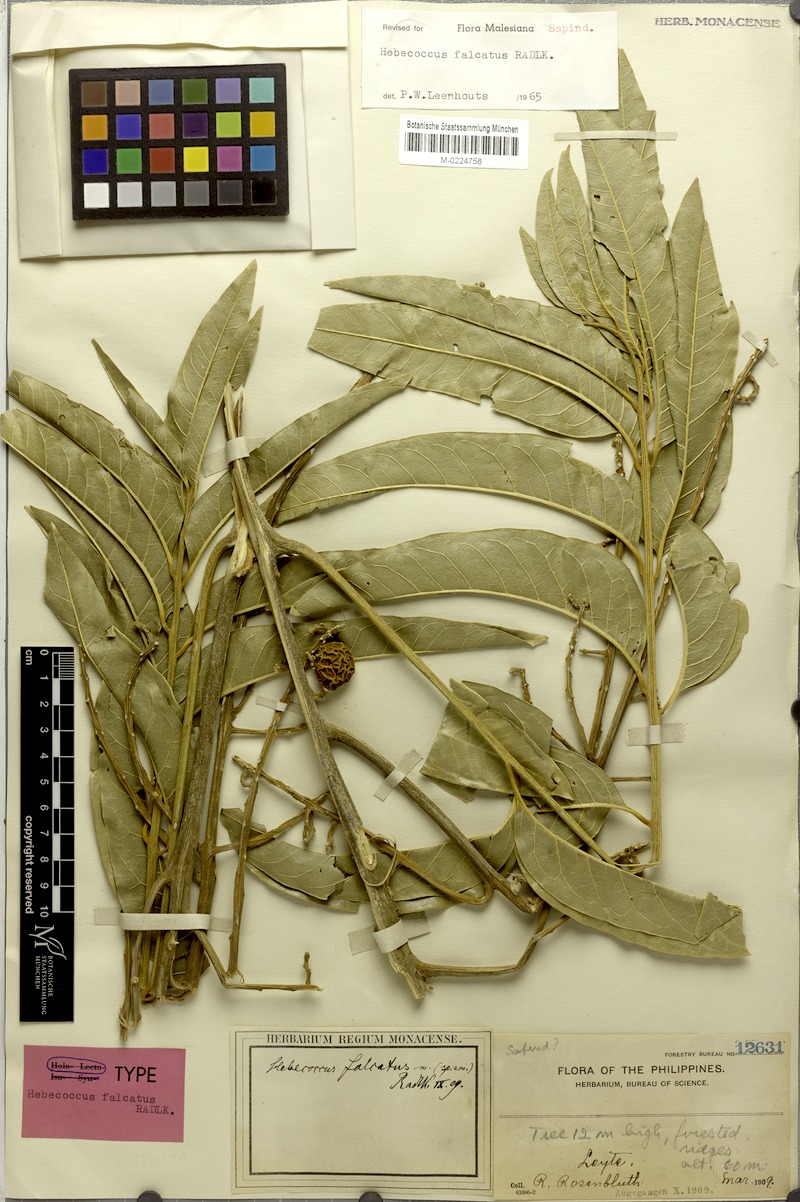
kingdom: Plantae
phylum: Tracheophyta
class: Magnoliopsida
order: Sapindales
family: Sapindaceae
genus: Lepisanthes
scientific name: Lepisanthes falcata
